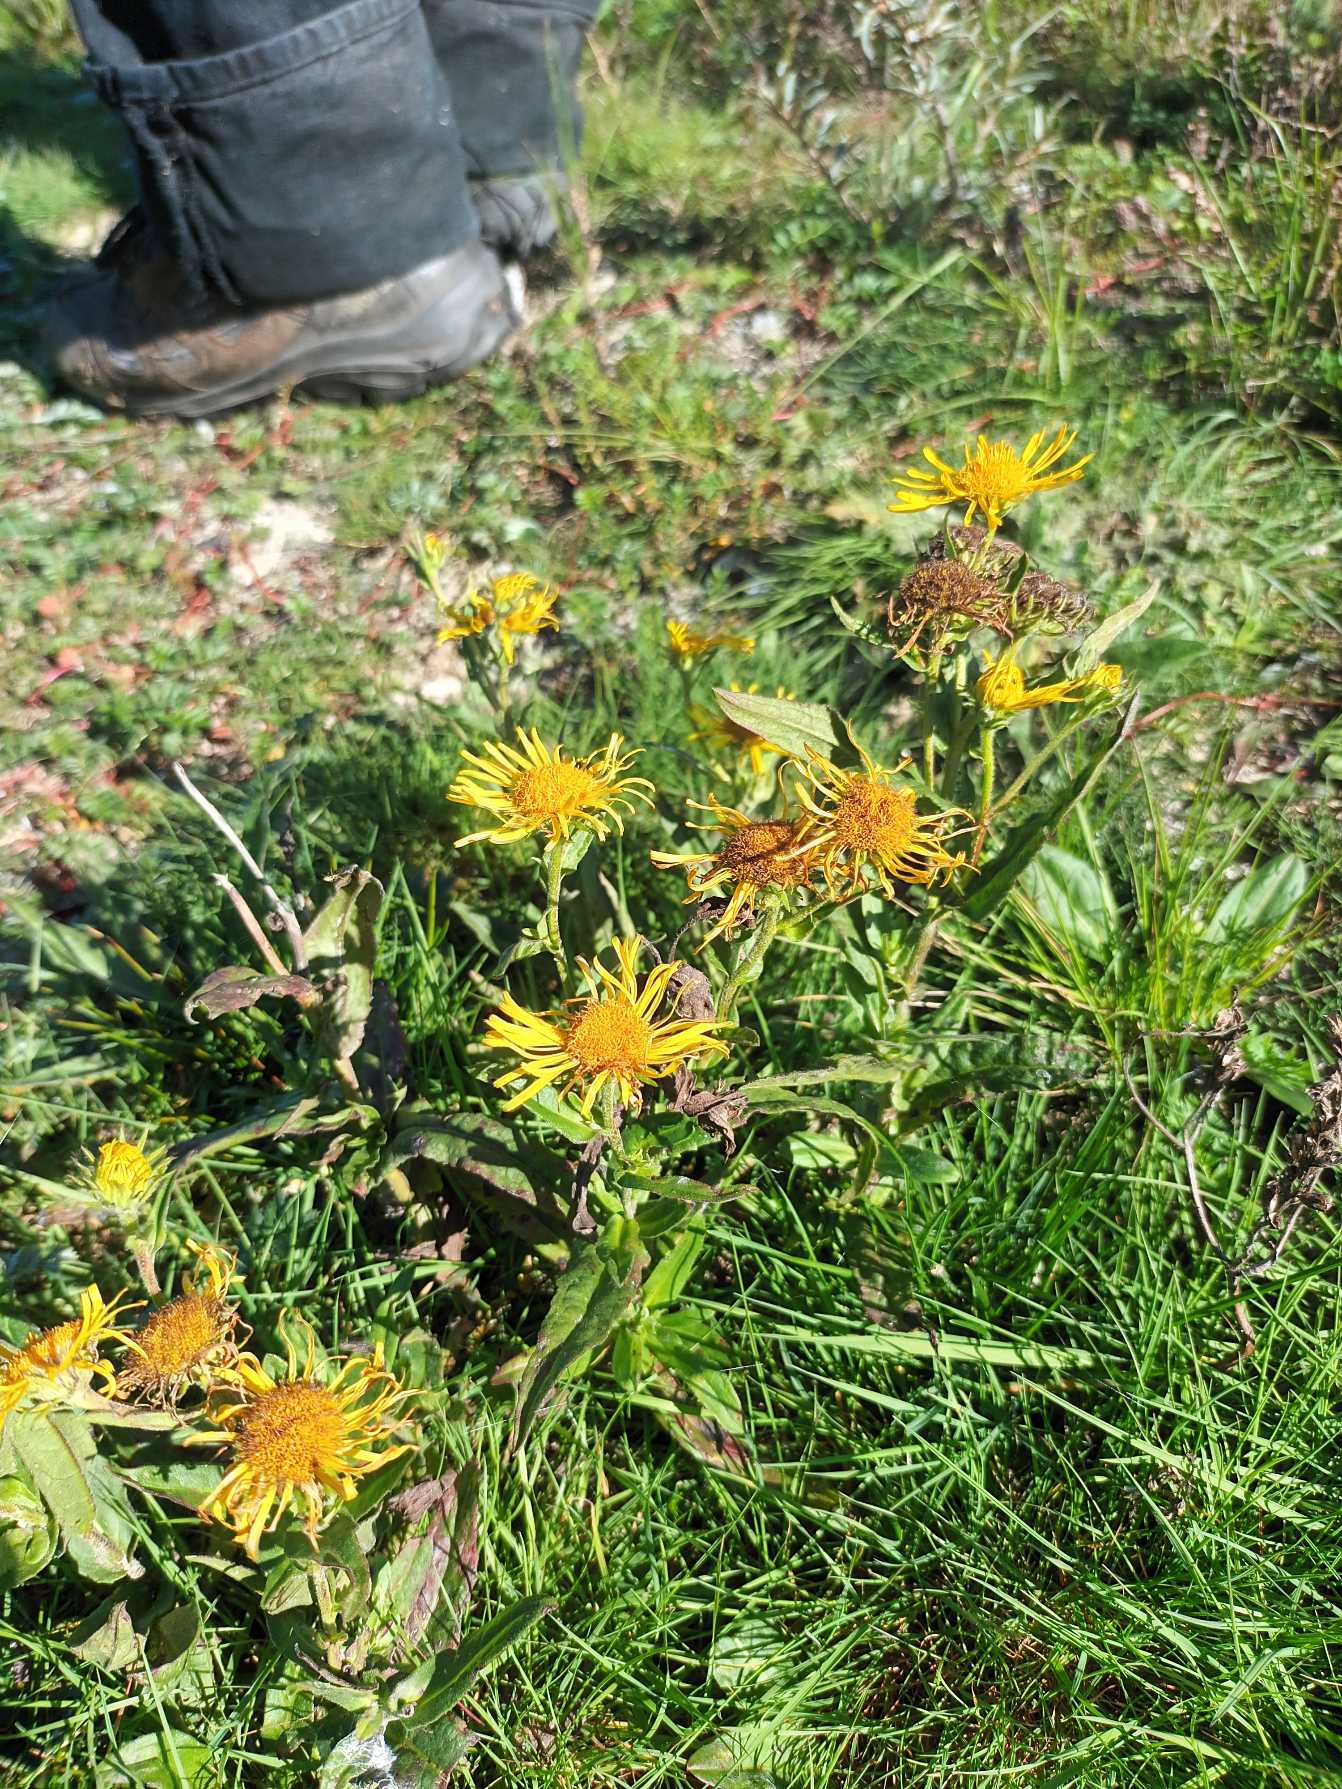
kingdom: Plantae
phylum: Tracheophyta
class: Magnoliopsida
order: Asterales
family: Asteraceae
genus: Pentanema
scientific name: Pentanema britannicum
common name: Soløje-alant
